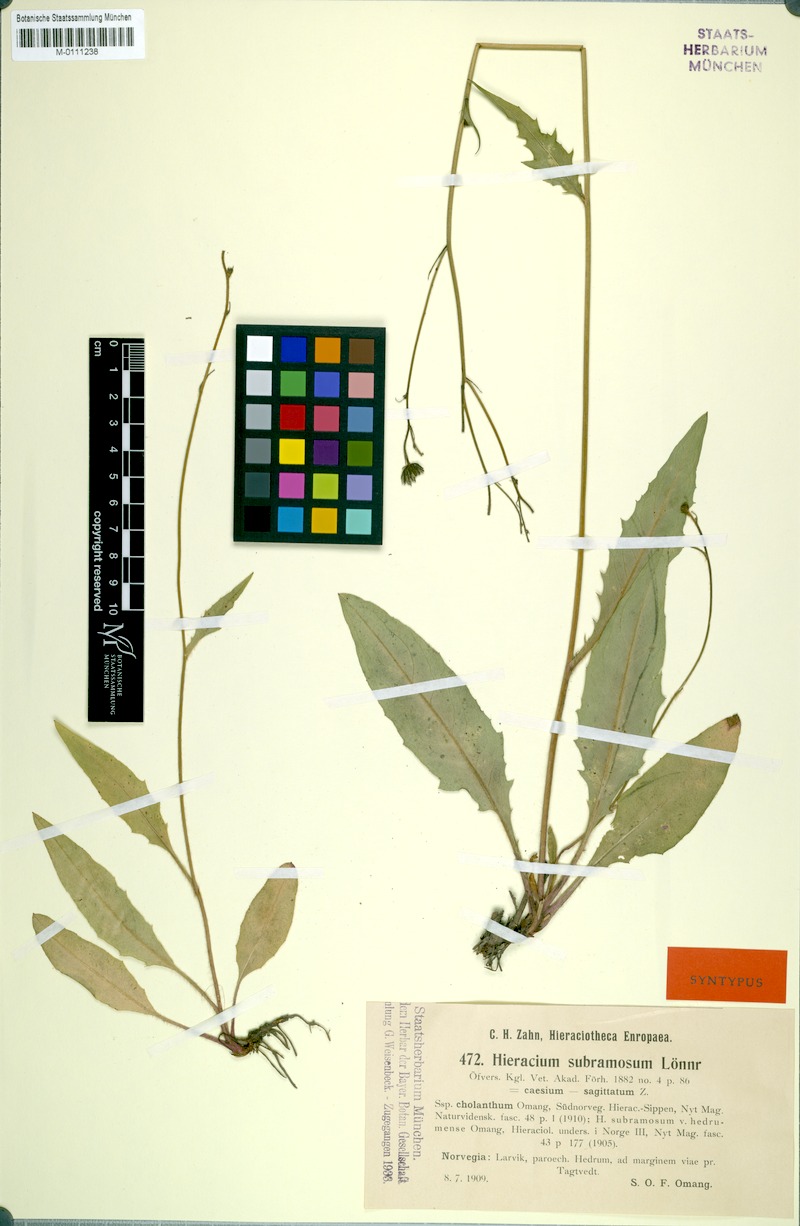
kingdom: Plantae
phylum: Tracheophyta
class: Magnoliopsida
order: Asterales
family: Asteraceae
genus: Hieracium
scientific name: Hieracium subramosum
